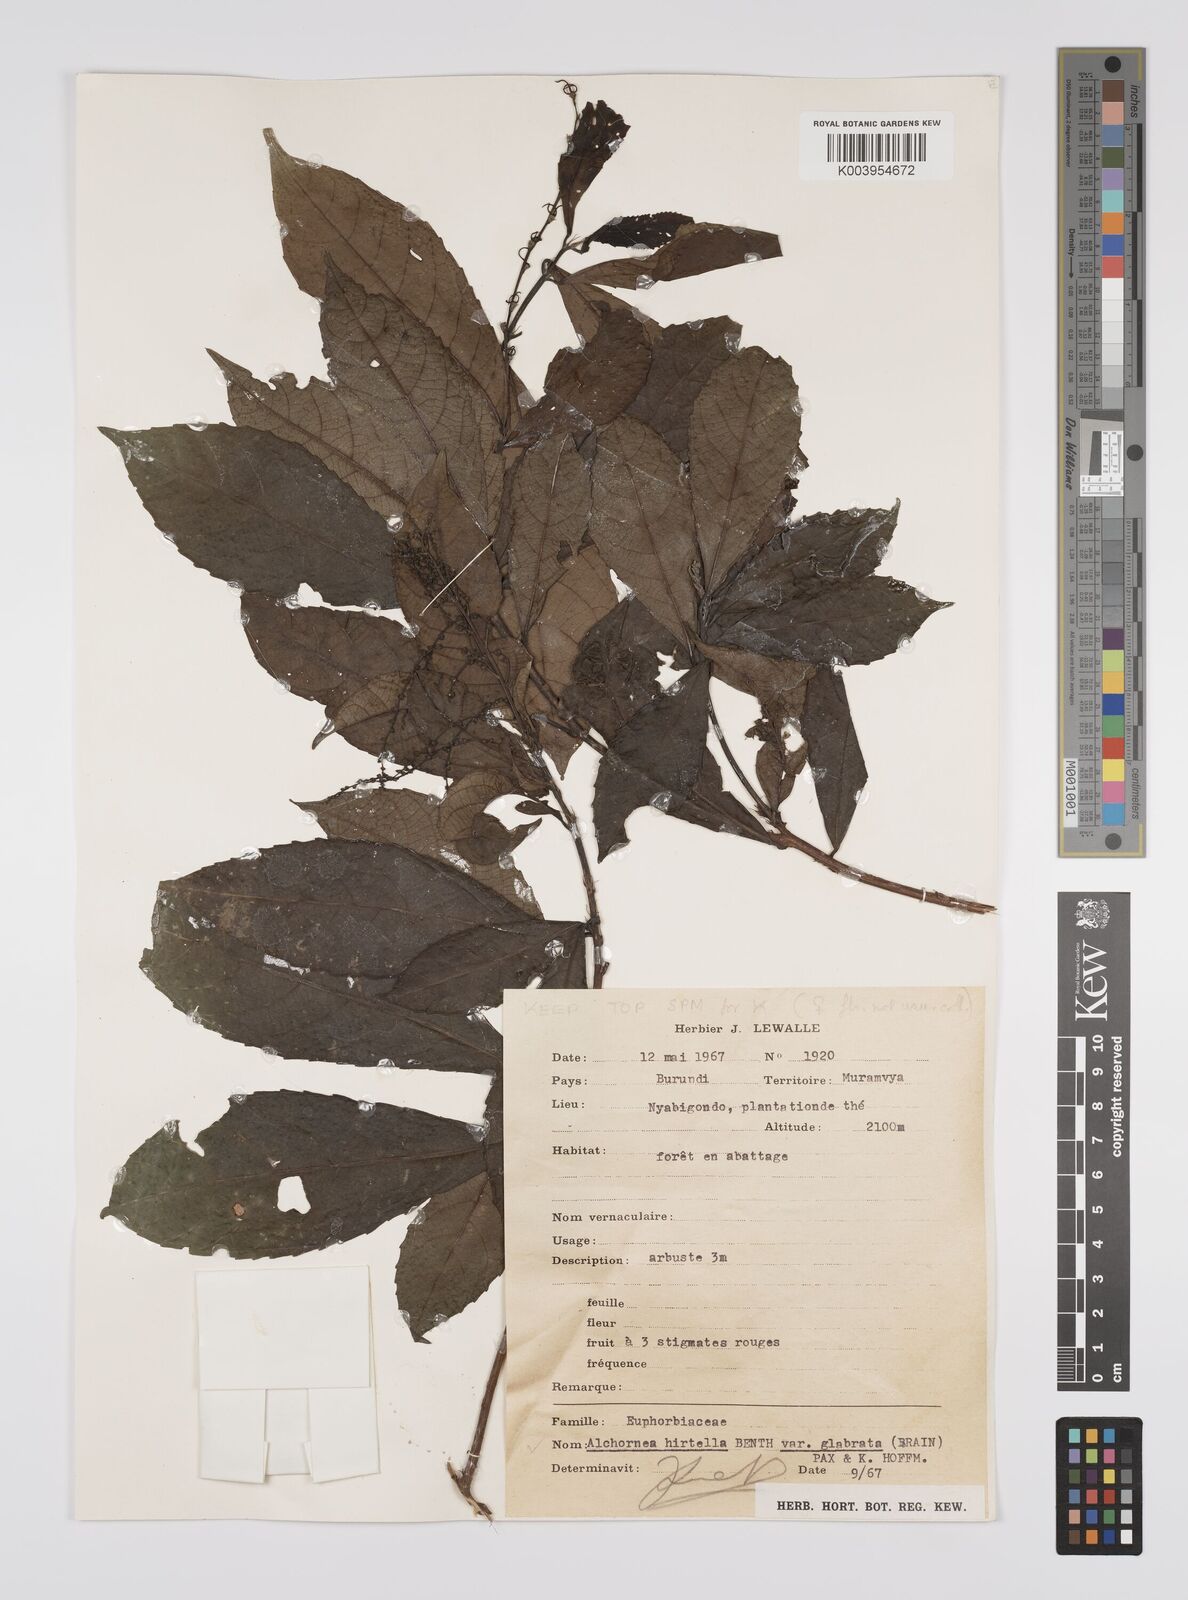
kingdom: Plantae
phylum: Tracheophyta
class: Magnoliopsida
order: Malpighiales
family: Euphorbiaceae
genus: Alchornea
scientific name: Alchornea hirtella
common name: Forest bead-string
